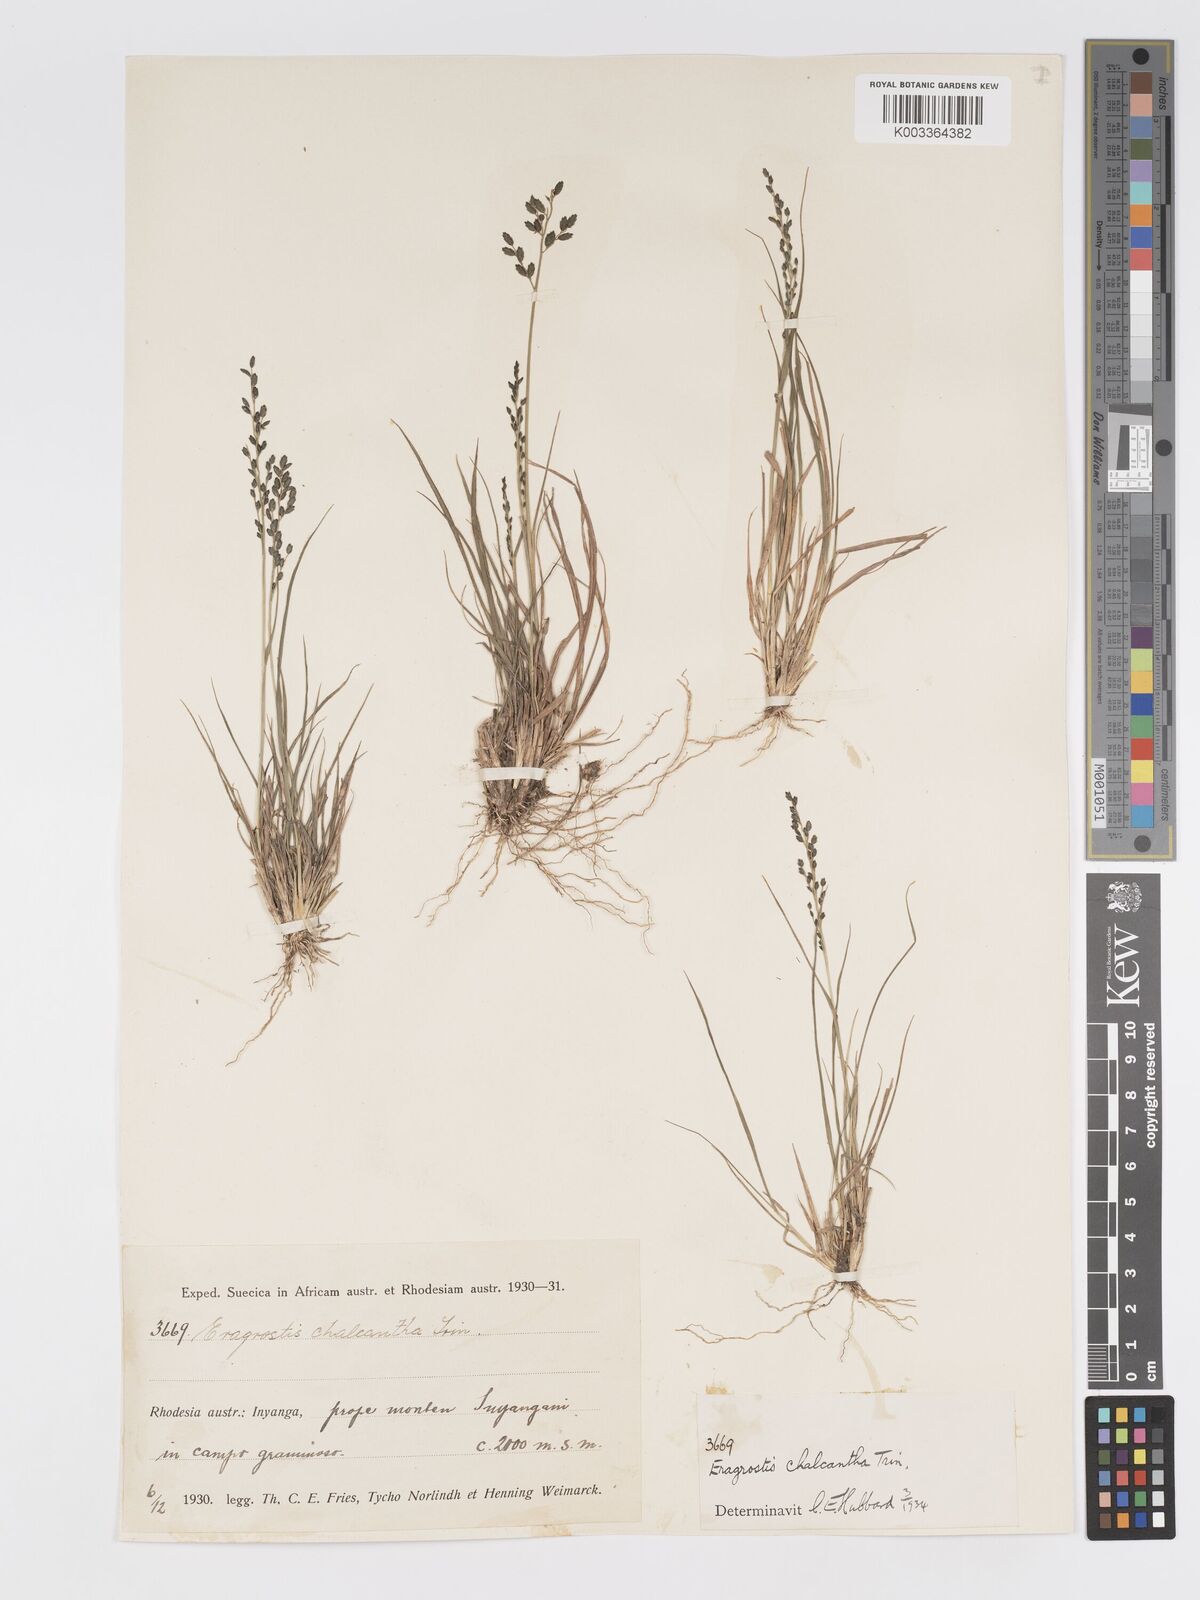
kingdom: Plantae
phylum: Tracheophyta
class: Liliopsida
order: Poales
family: Poaceae
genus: Eragrostis
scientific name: Eragrostis racemosa
